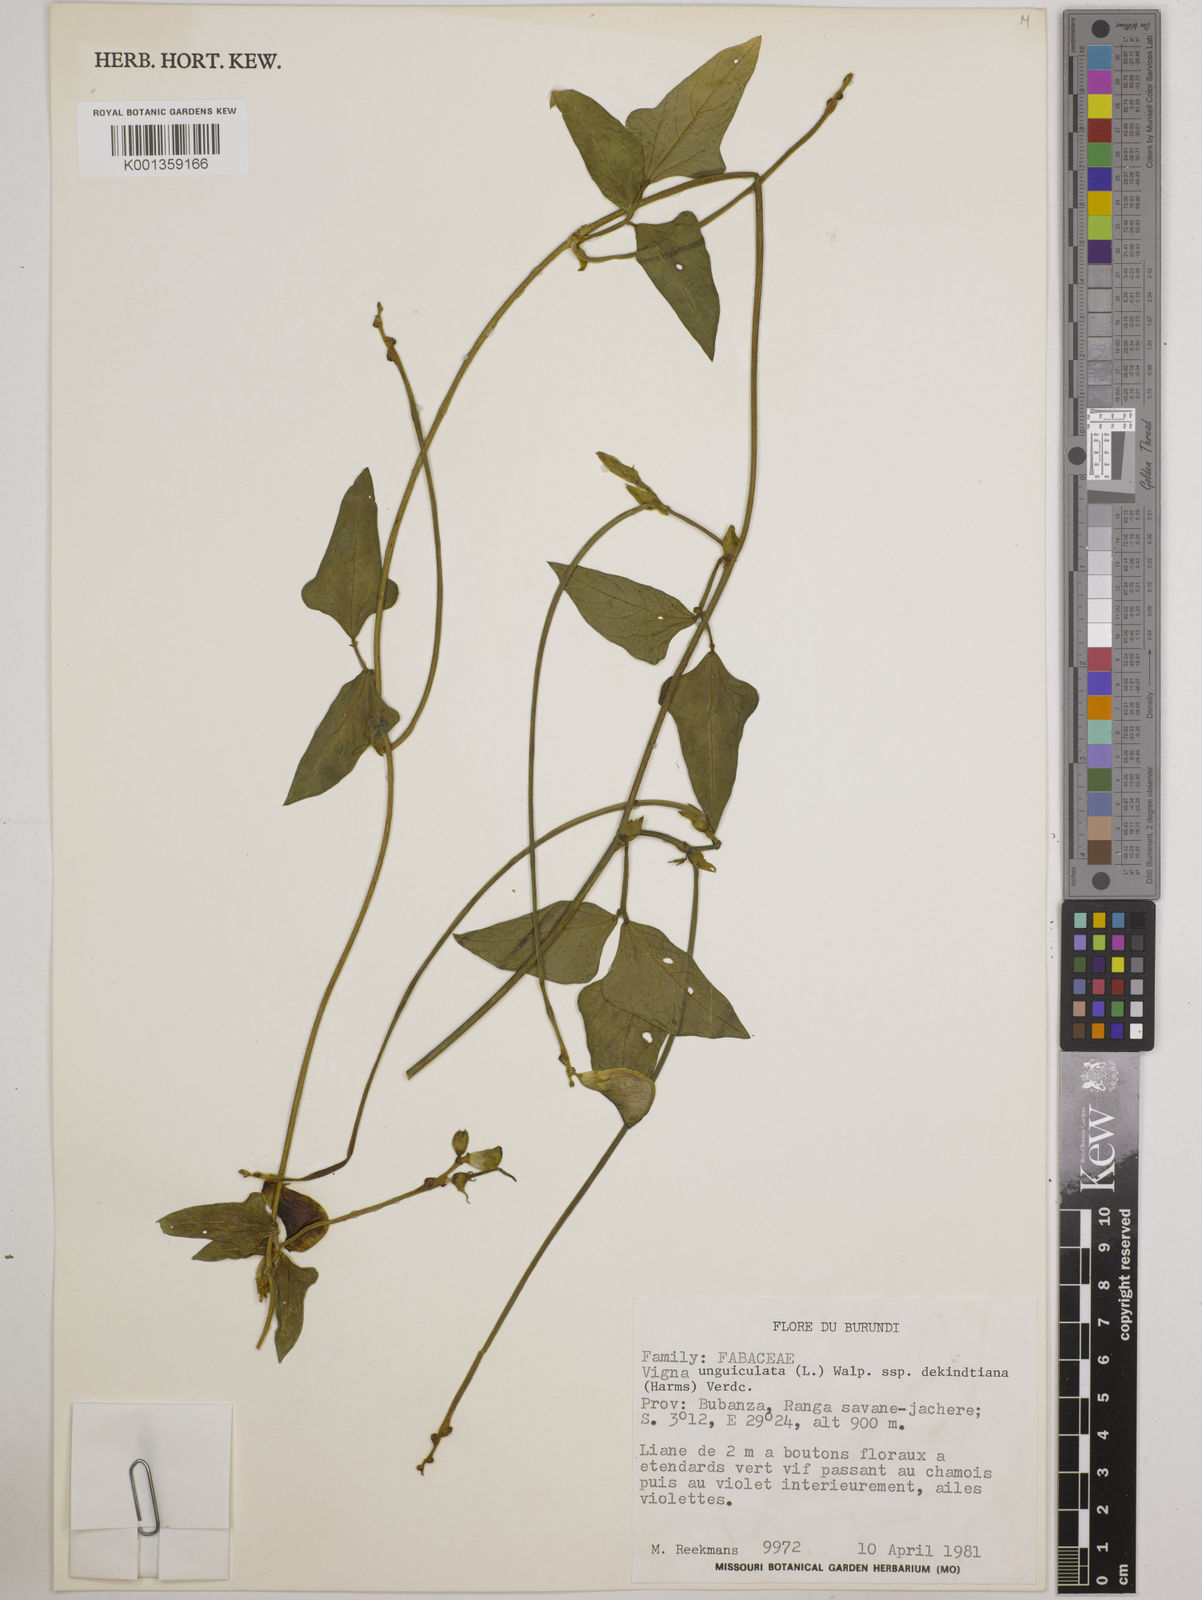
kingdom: Plantae
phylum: Tracheophyta
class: Magnoliopsida
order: Fabales
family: Fabaceae
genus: Vigna
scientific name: Vigna
